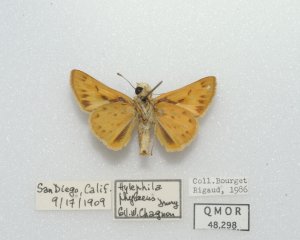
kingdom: Animalia
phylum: Arthropoda
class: Insecta
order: Lepidoptera
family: Hesperiidae
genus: Hylephila
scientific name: Hylephila phyleus
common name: Fiery Skipper
